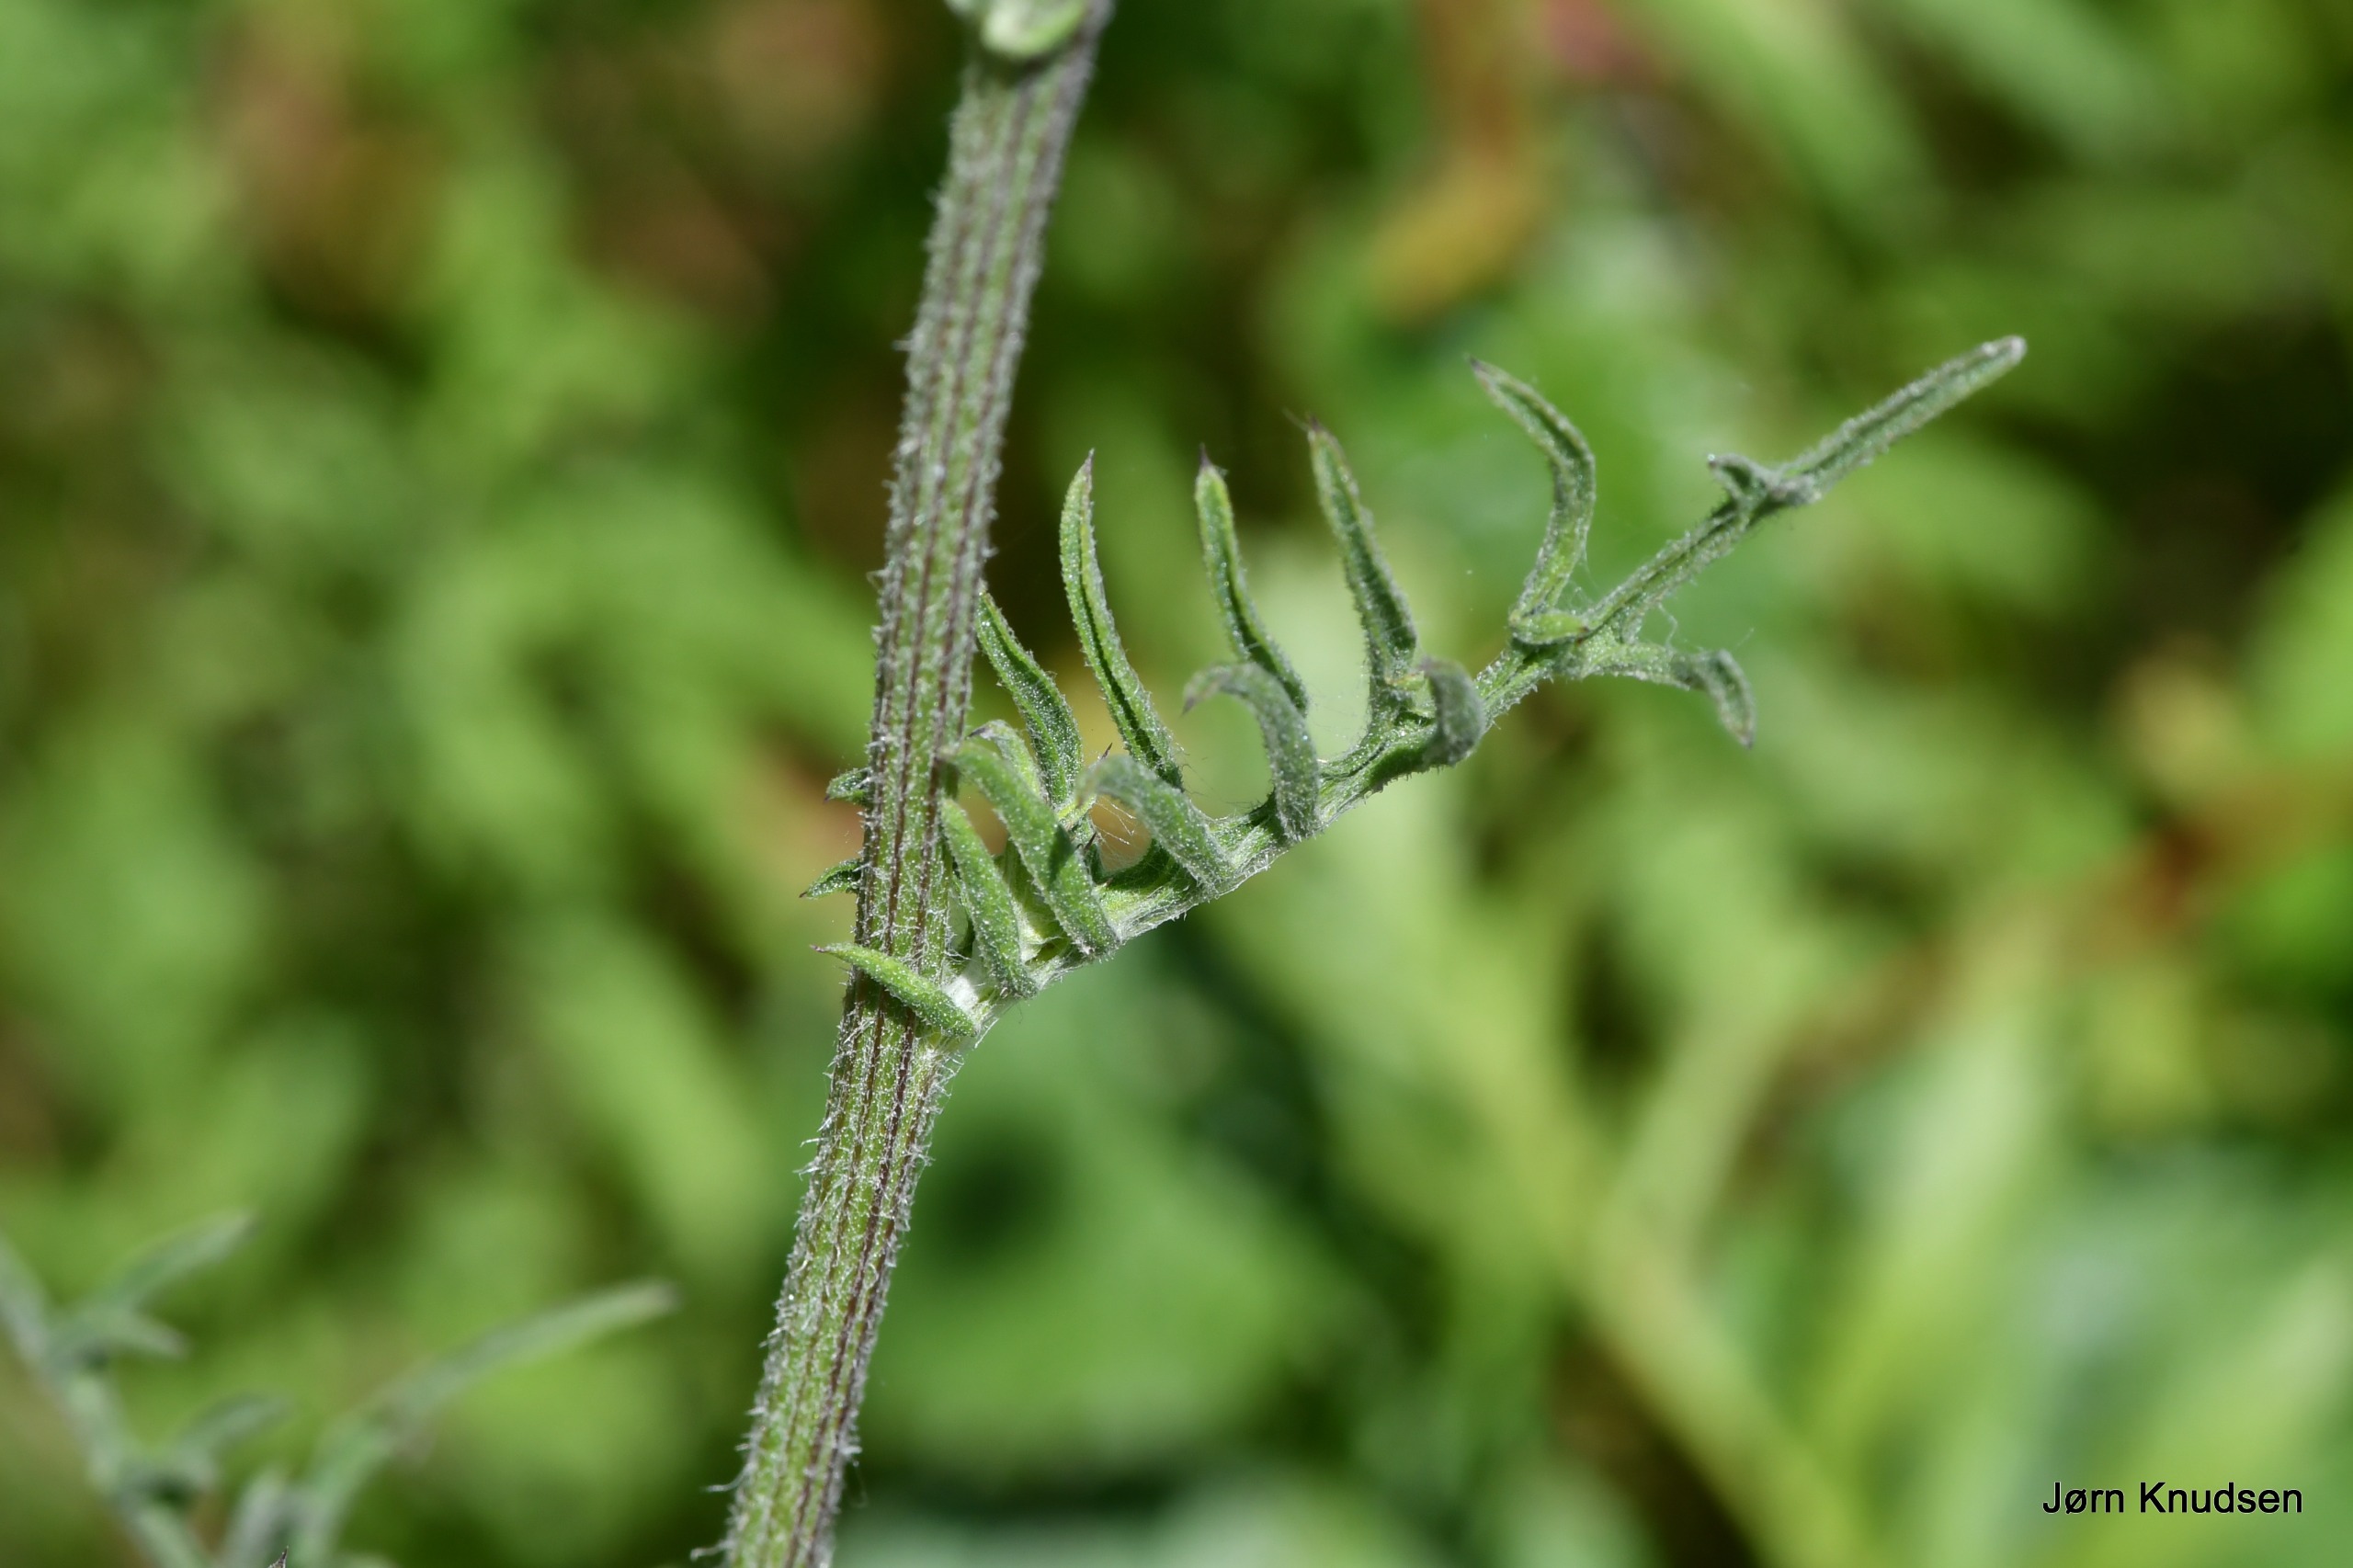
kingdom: Plantae
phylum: Tracheophyta
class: Magnoliopsida
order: Asterales
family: Asteraceae
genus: Centaurea
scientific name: Centaurea scabiosa
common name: Stor knopurt
